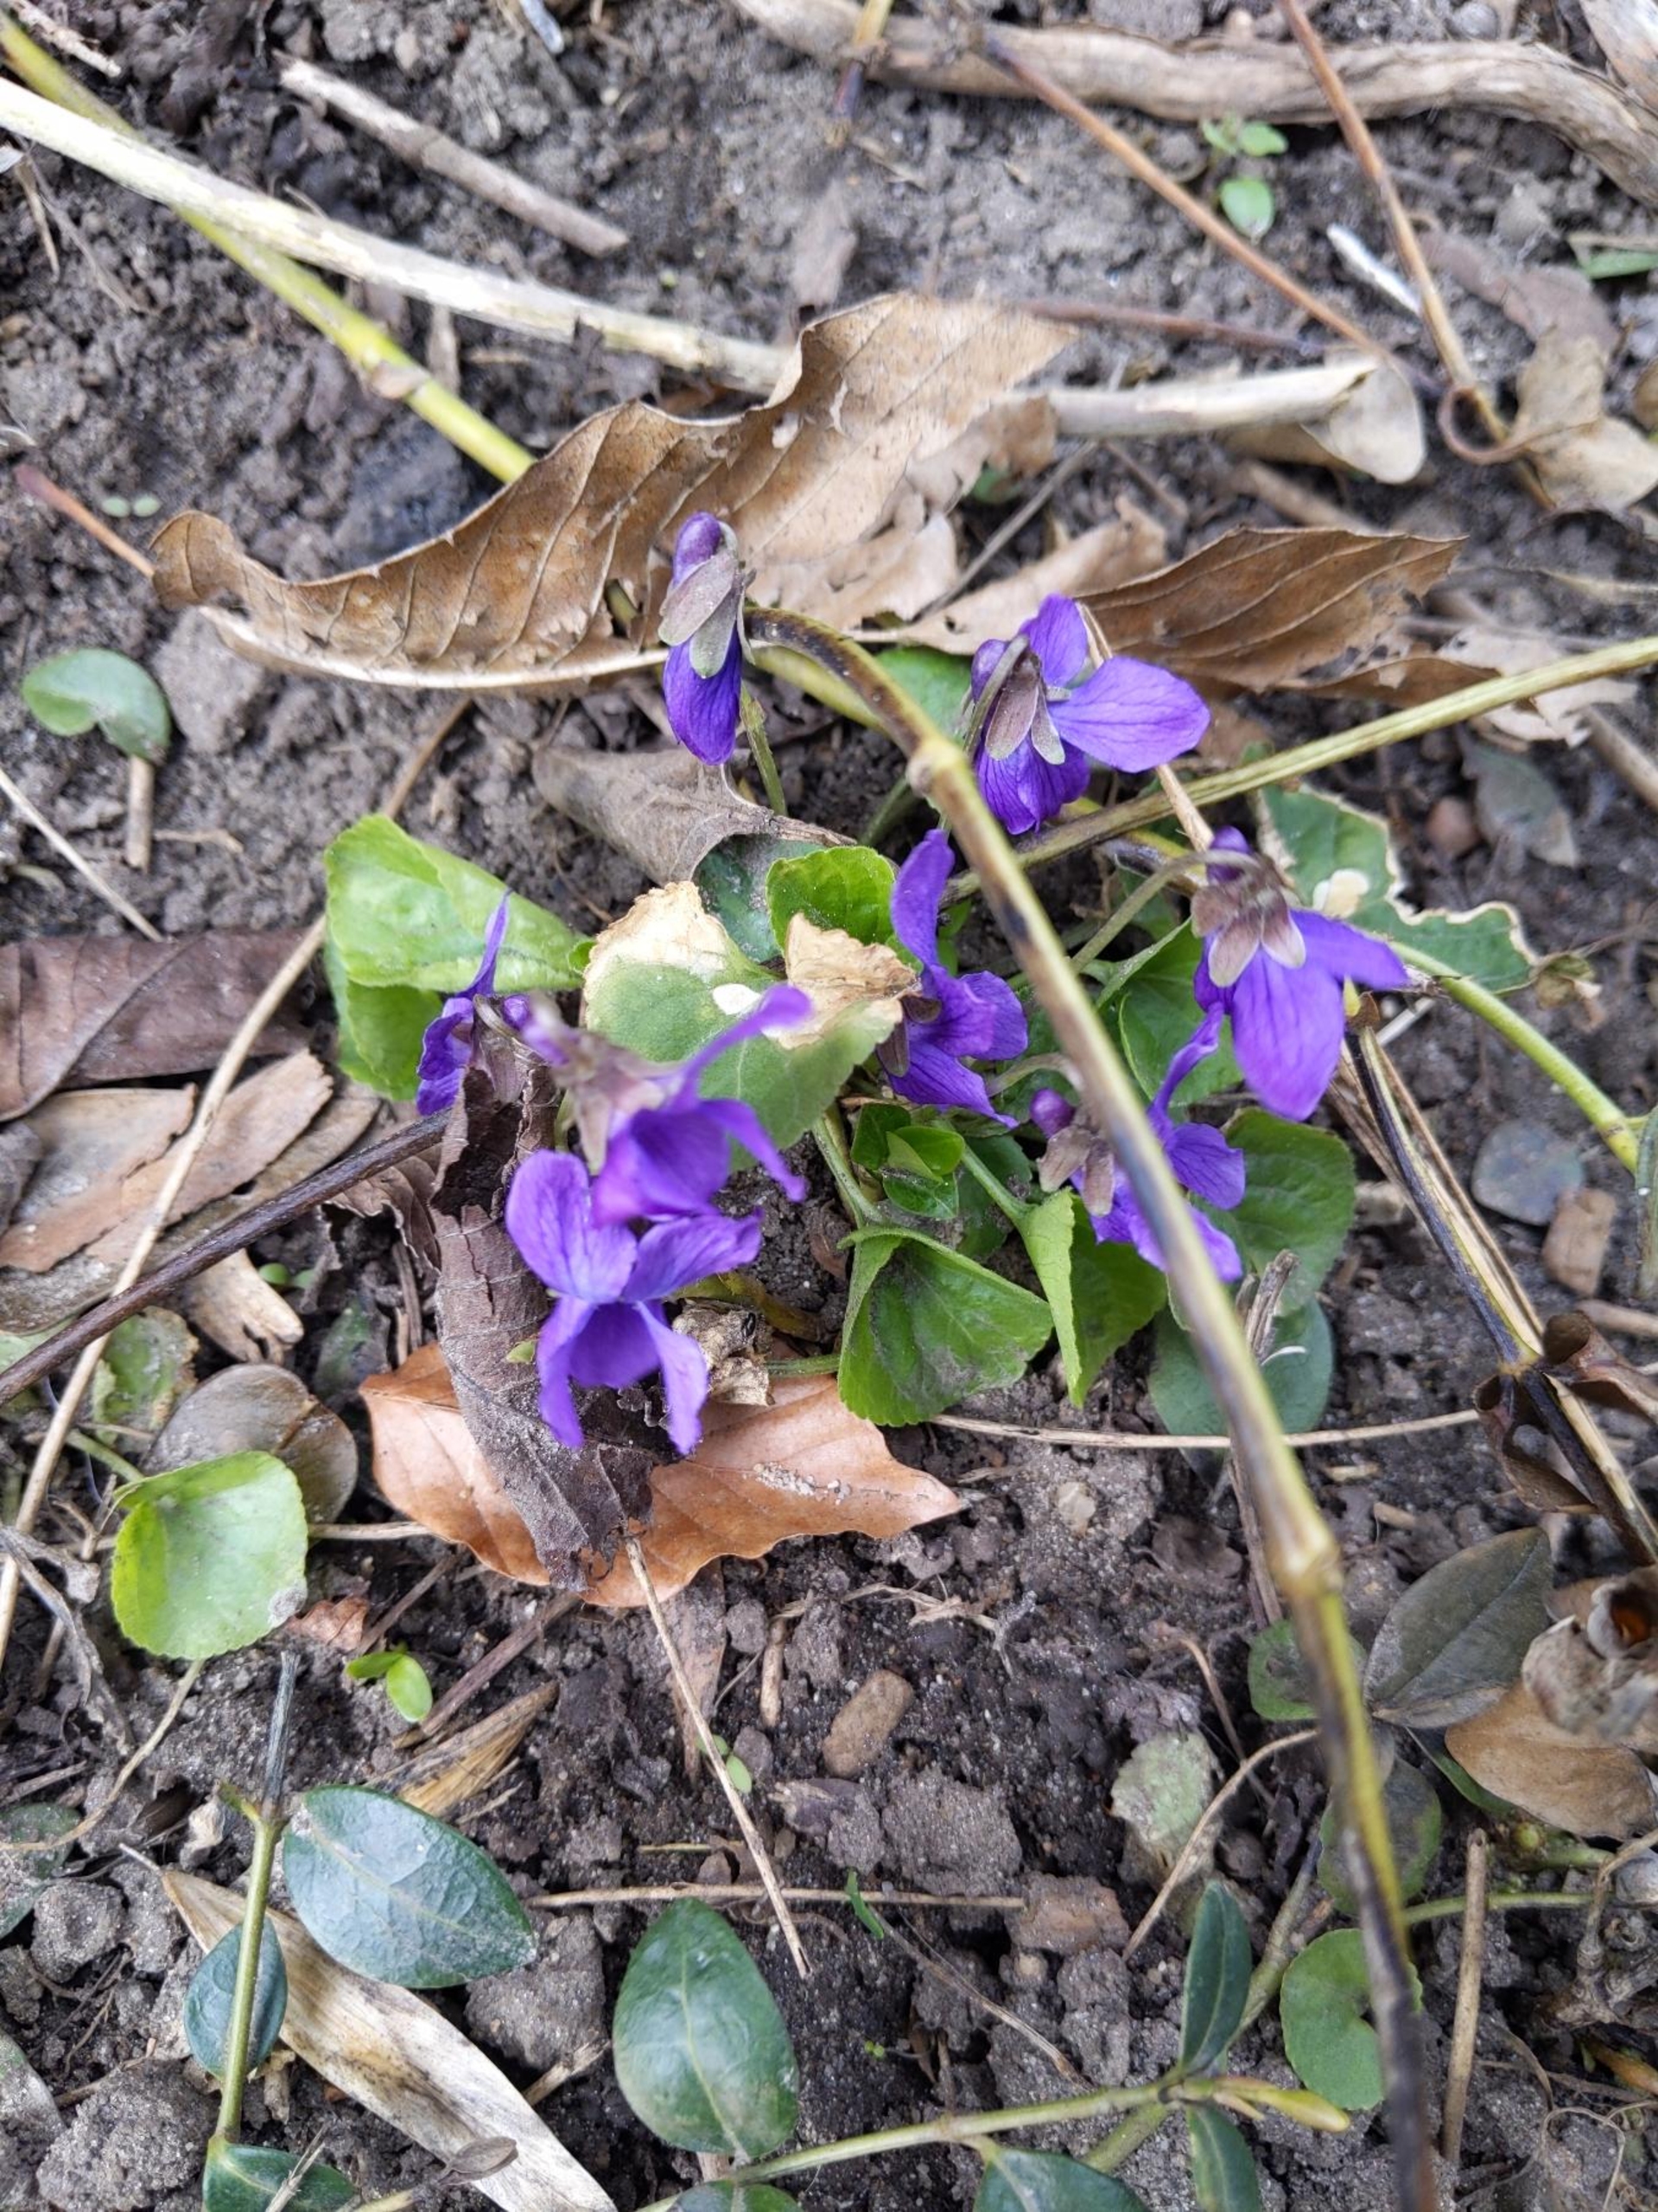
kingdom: Plantae
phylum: Tracheophyta
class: Magnoliopsida
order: Malpighiales
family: Violaceae
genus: Viola
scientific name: Viola odorata
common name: Marts-viol
